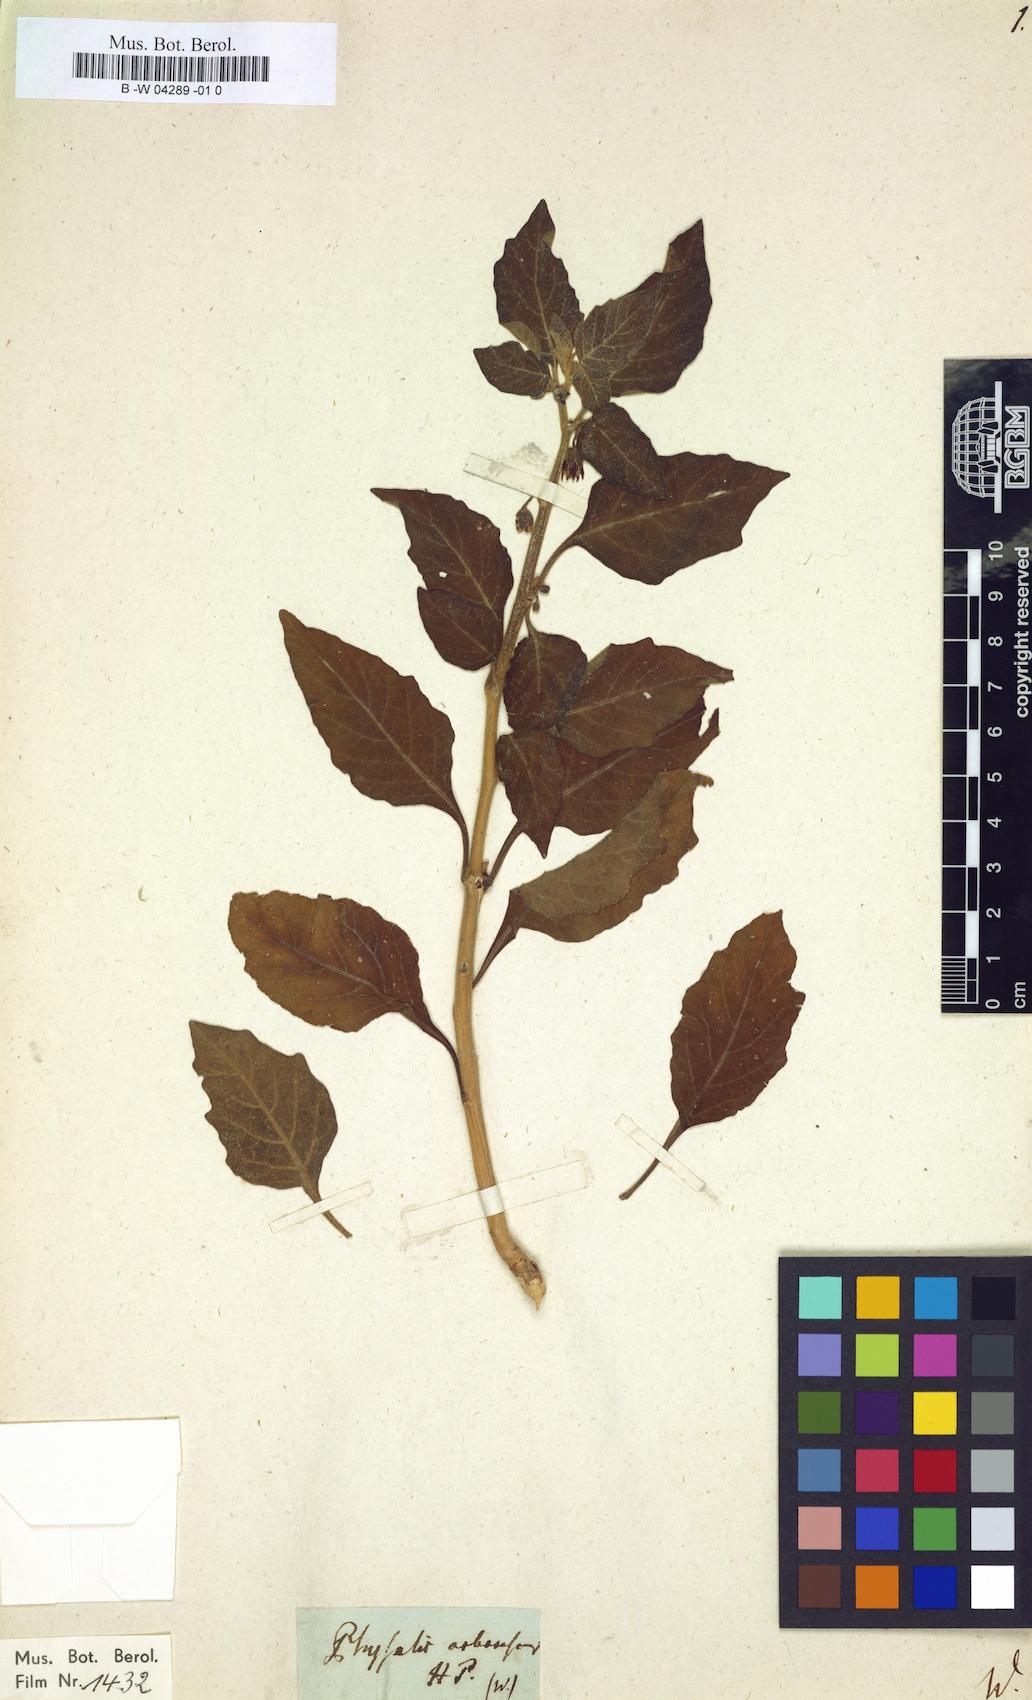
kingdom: Plantae
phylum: Tracheophyta
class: Magnoliopsida
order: Solanales
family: Solanaceae
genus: Physalis
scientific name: Physalis arborescens
